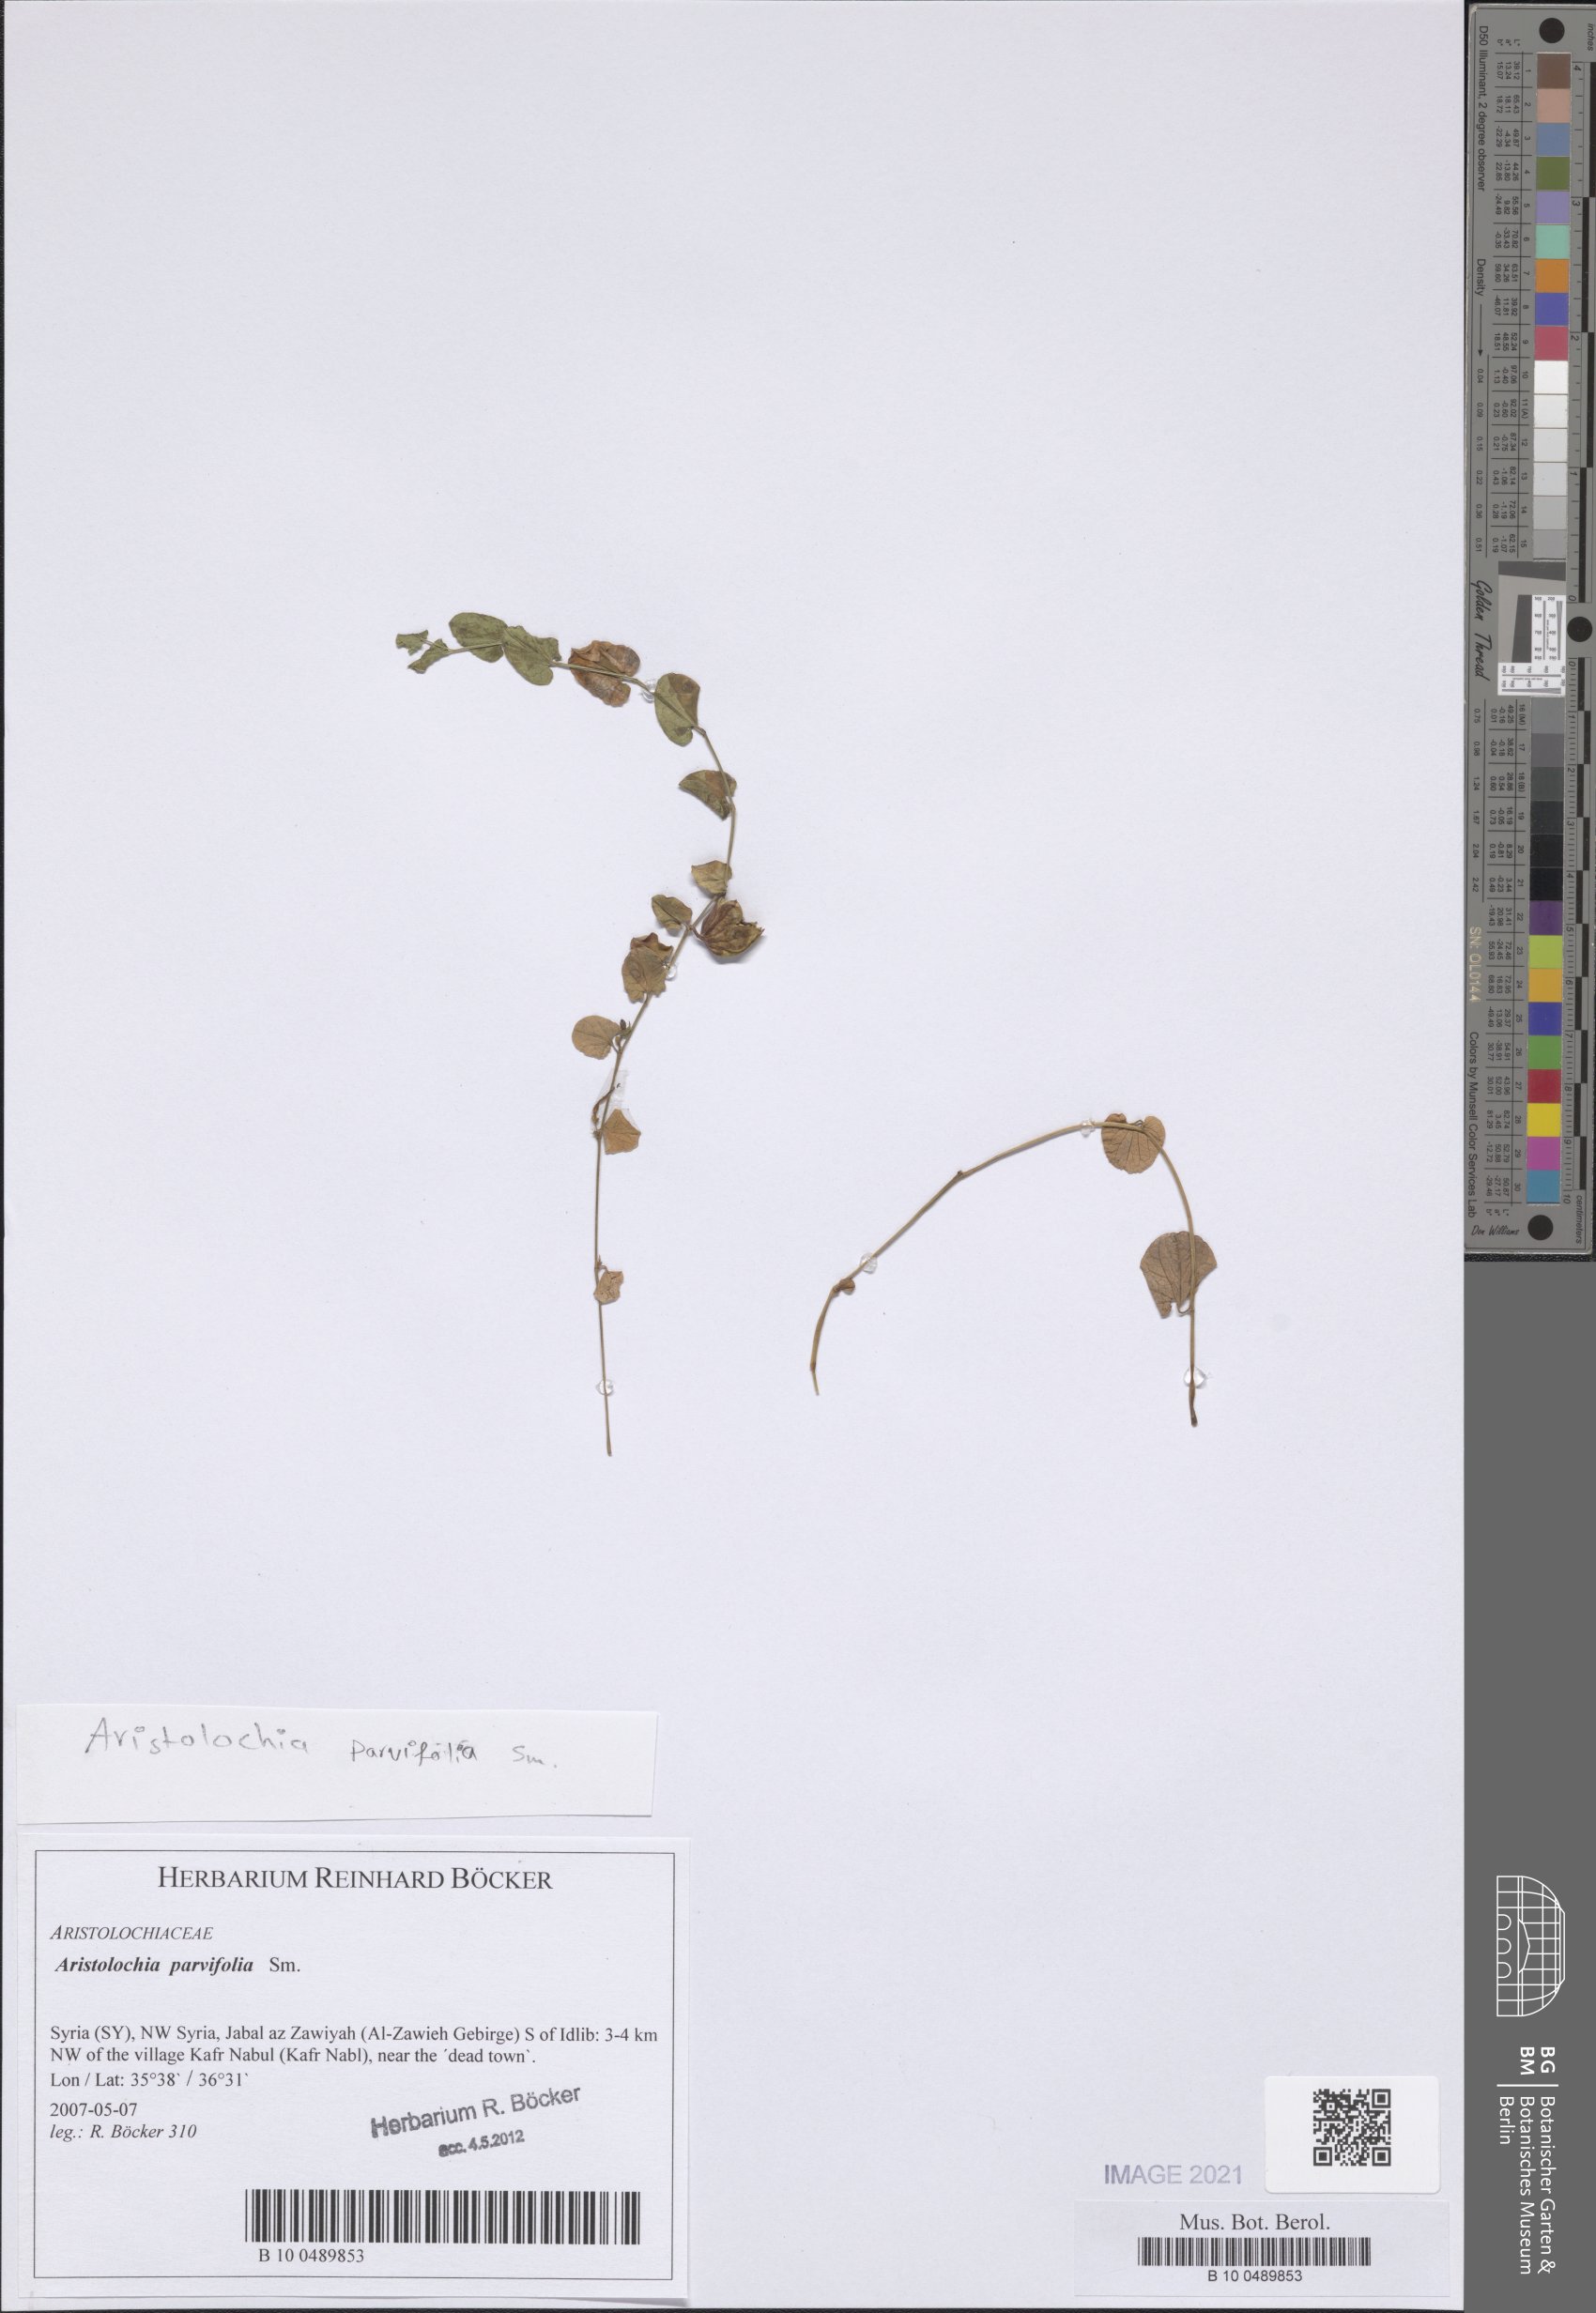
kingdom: Plantae
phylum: Tracheophyta
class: Magnoliopsida
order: Piperales
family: Aristolochiaceae
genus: Aristolochia
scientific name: Aristolochia parvifolia
